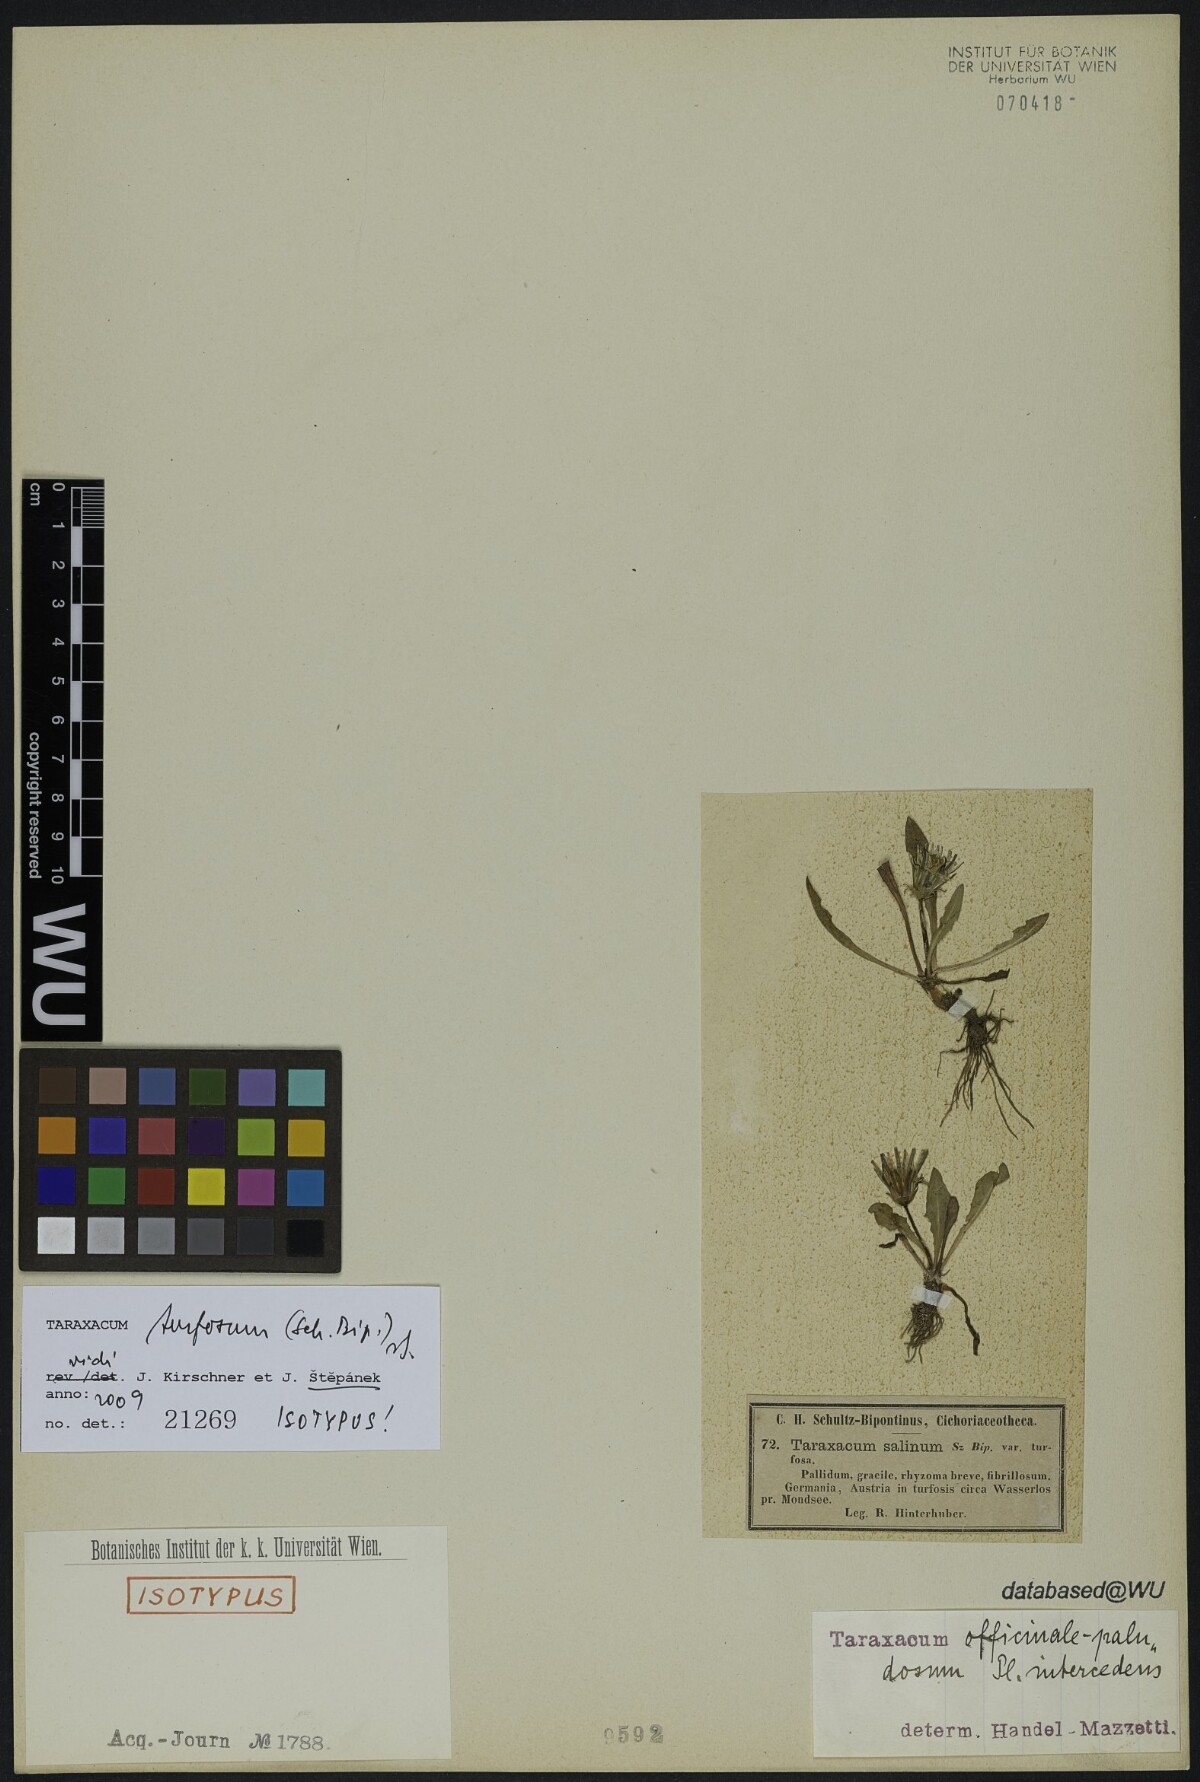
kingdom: Plantae
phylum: Tracheophyta
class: Magnoliopsida
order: Asterales
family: Asteraceae
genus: Taraxacum
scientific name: Taraxacum turfosum
